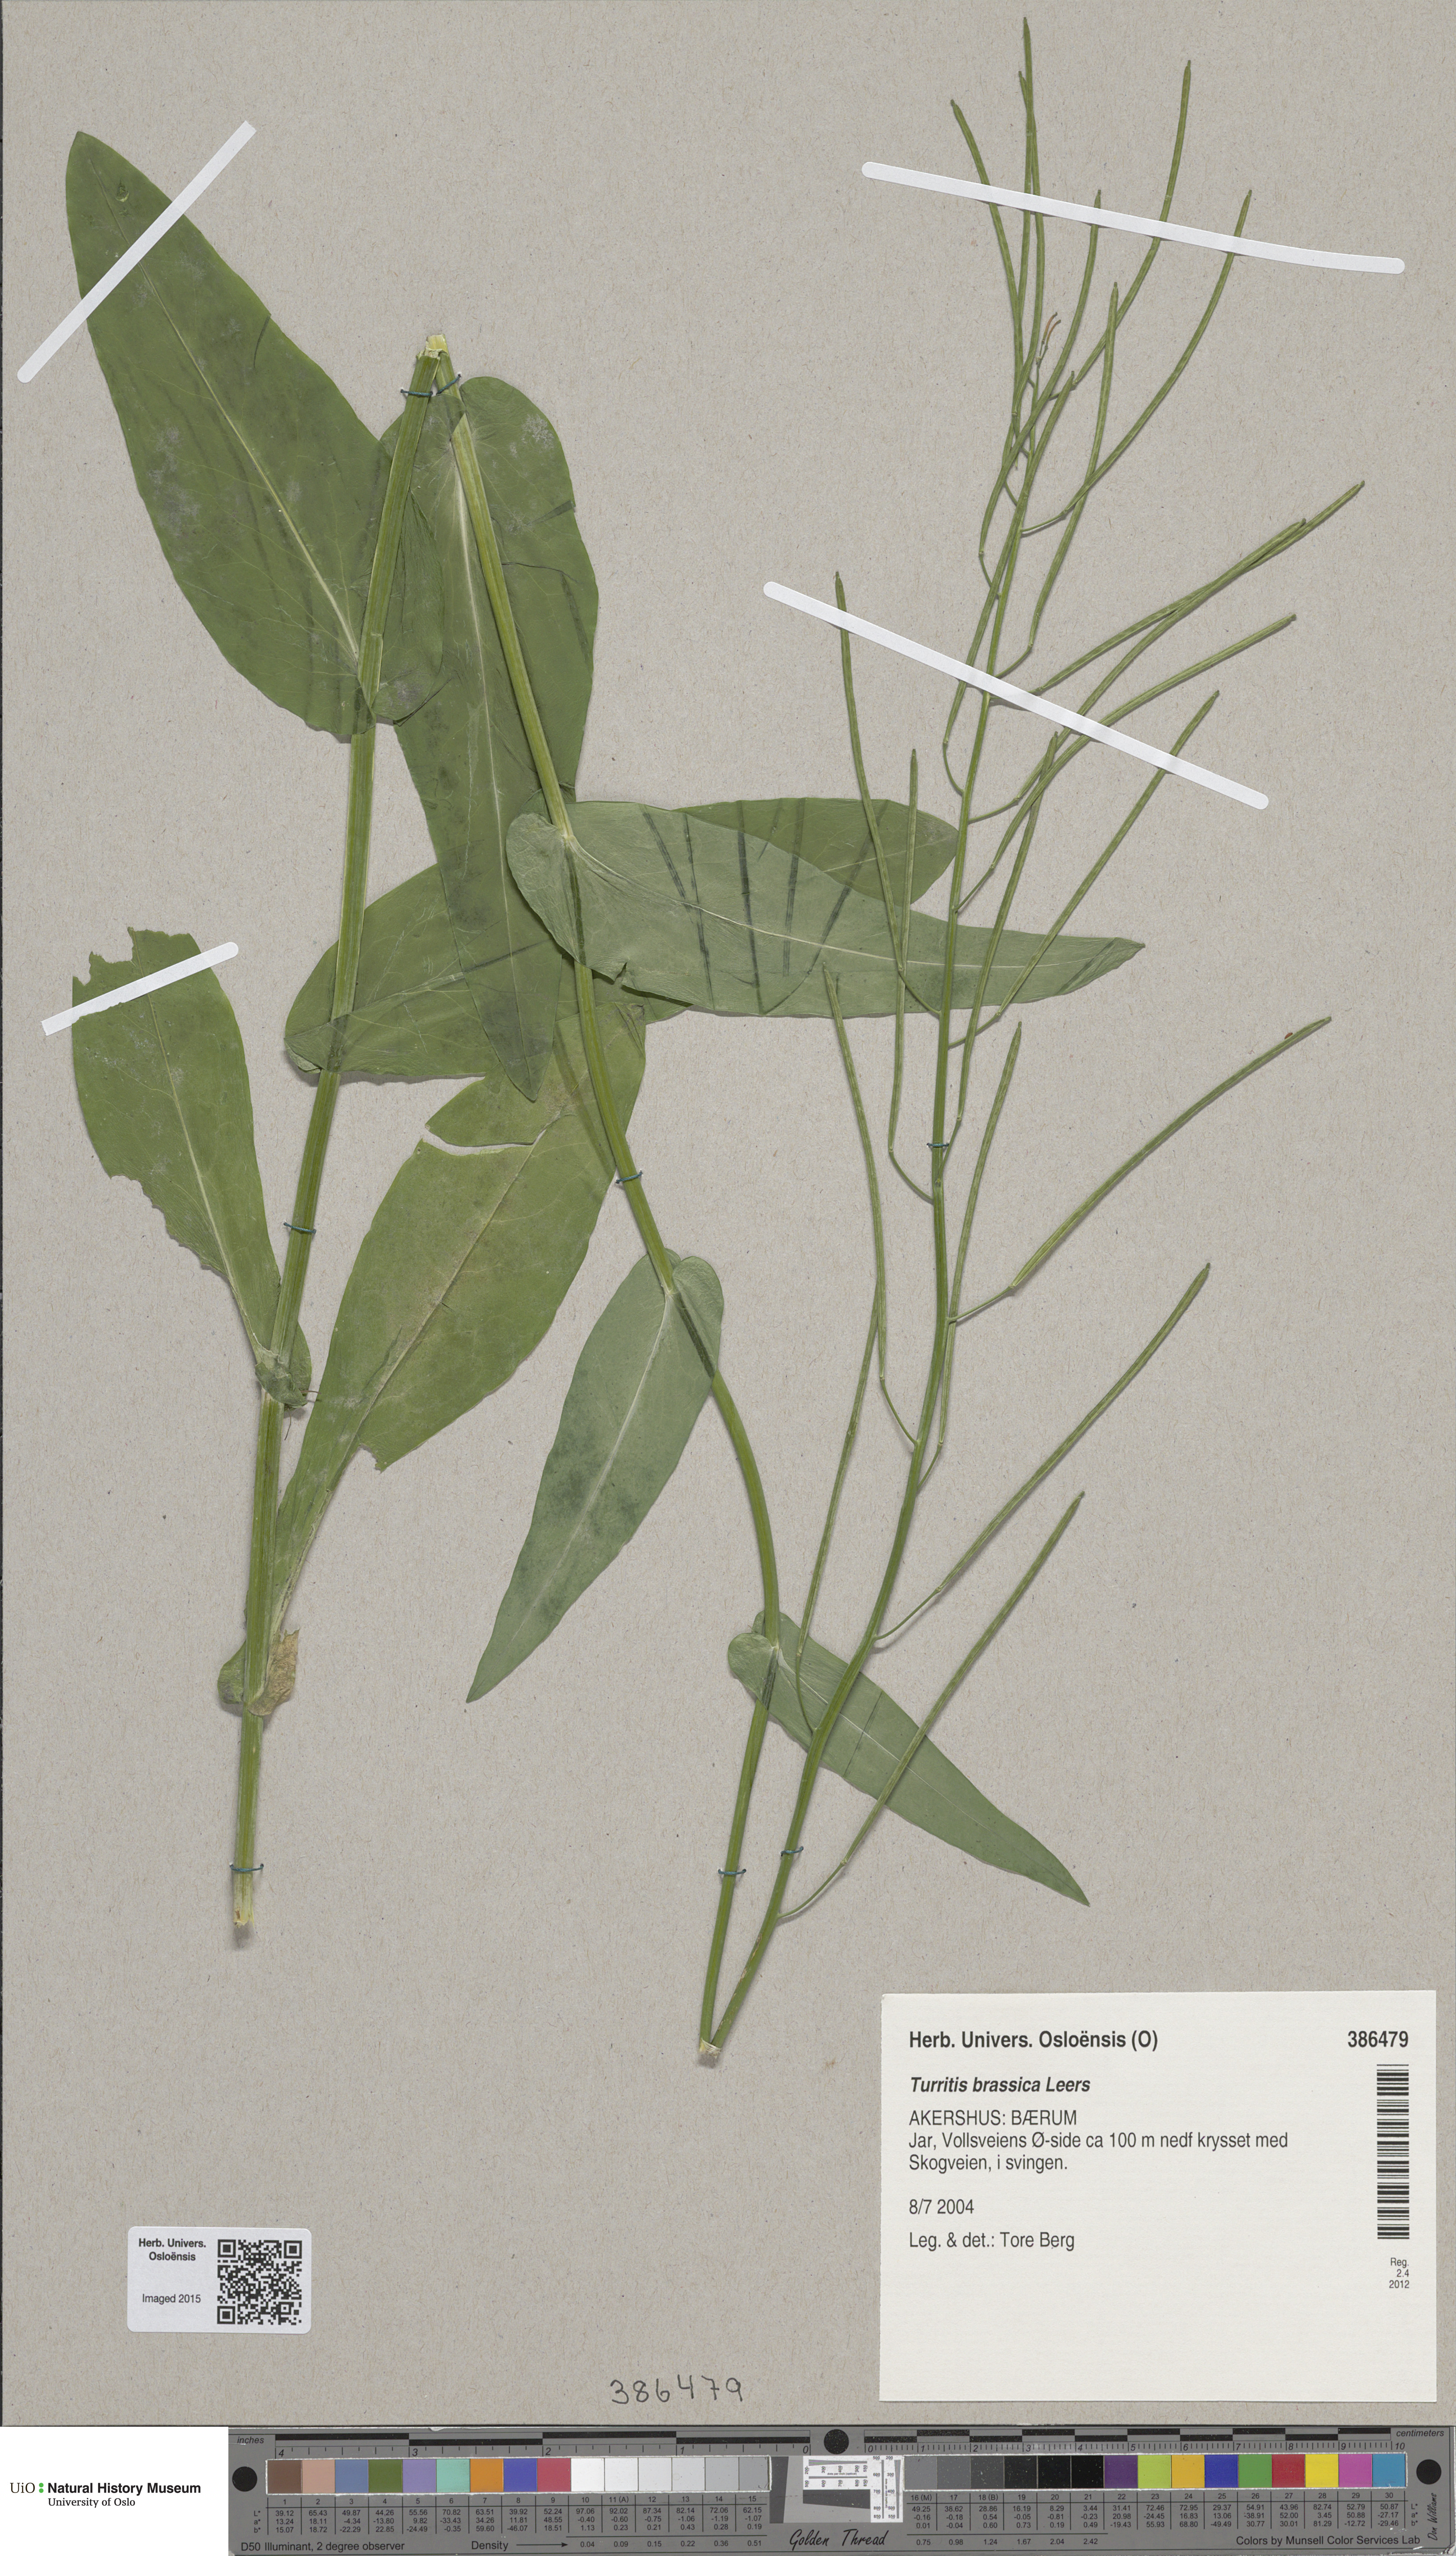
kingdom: Plantae
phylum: Tracheophyta
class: Magnoliopsida
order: Brassicales
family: Brassicaceae
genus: Fourraea
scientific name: Fourraea alpina
